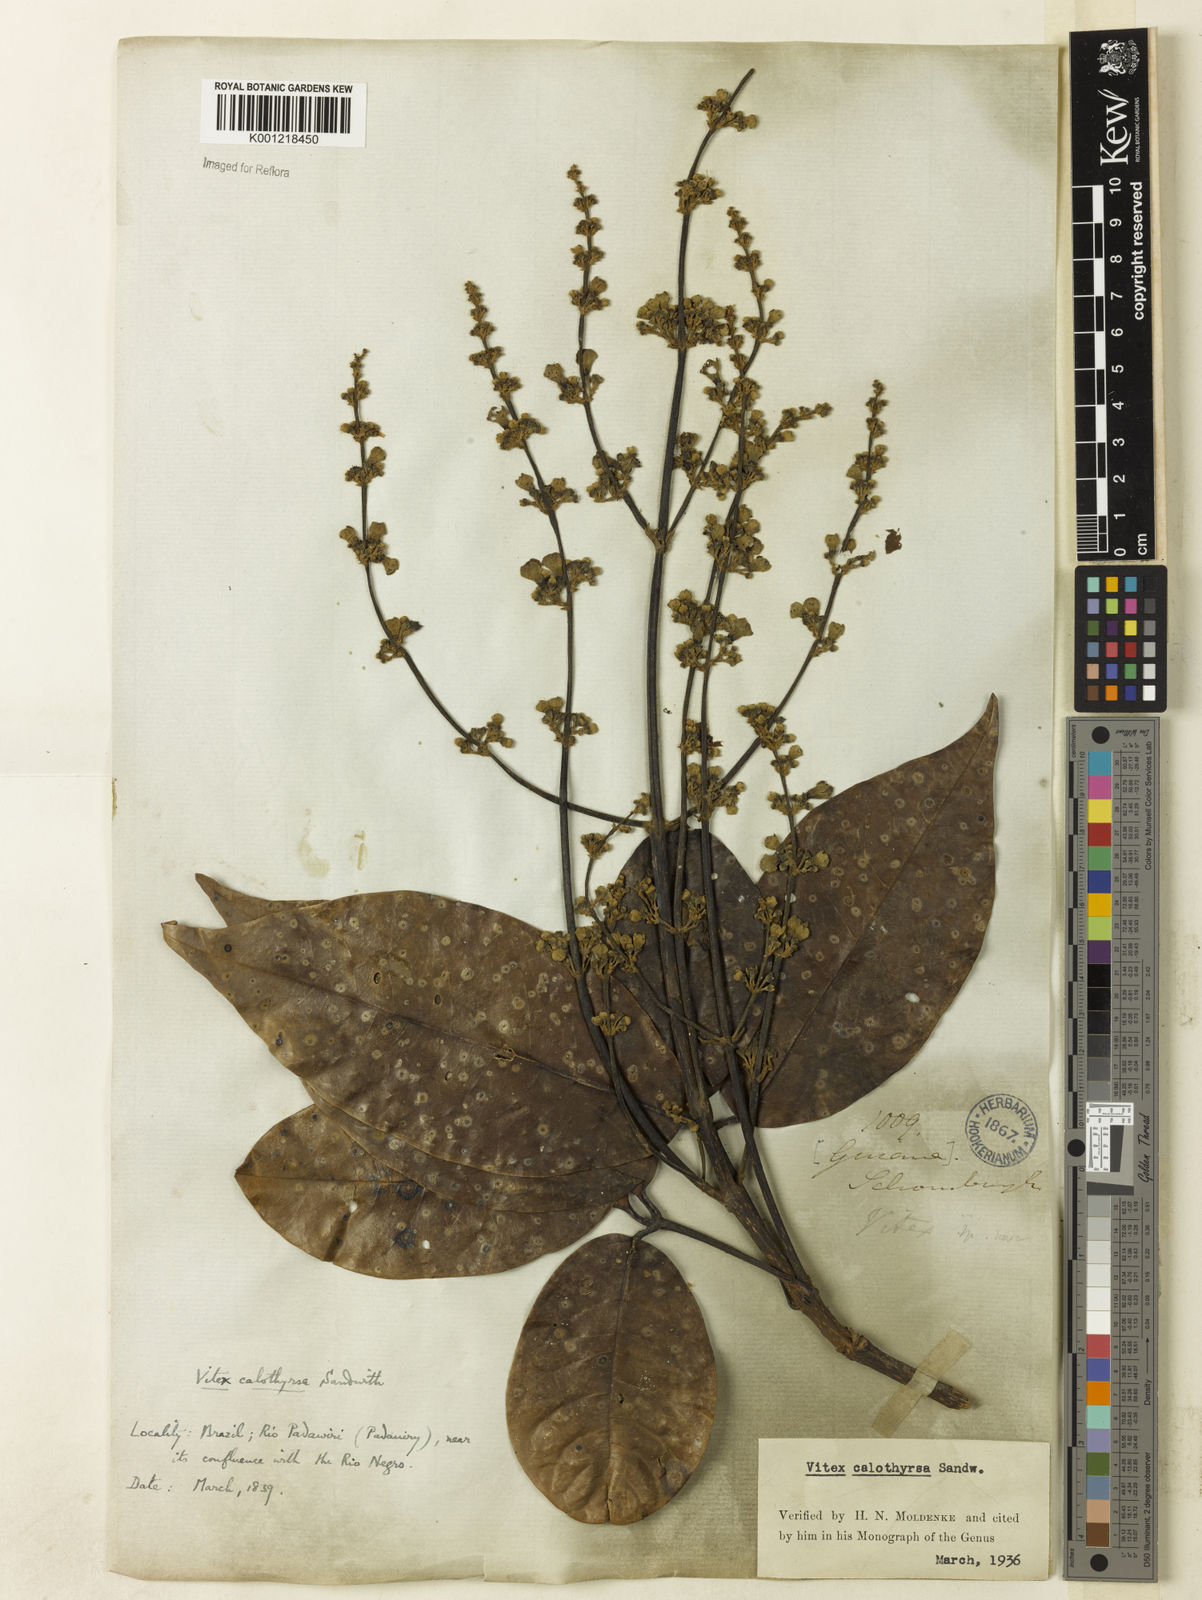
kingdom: Plantae
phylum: Tracheophyta
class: Magnoliopsida
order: Lamiales
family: Lamiaceae
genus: Vitex
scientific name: Vitex calothyrsa
